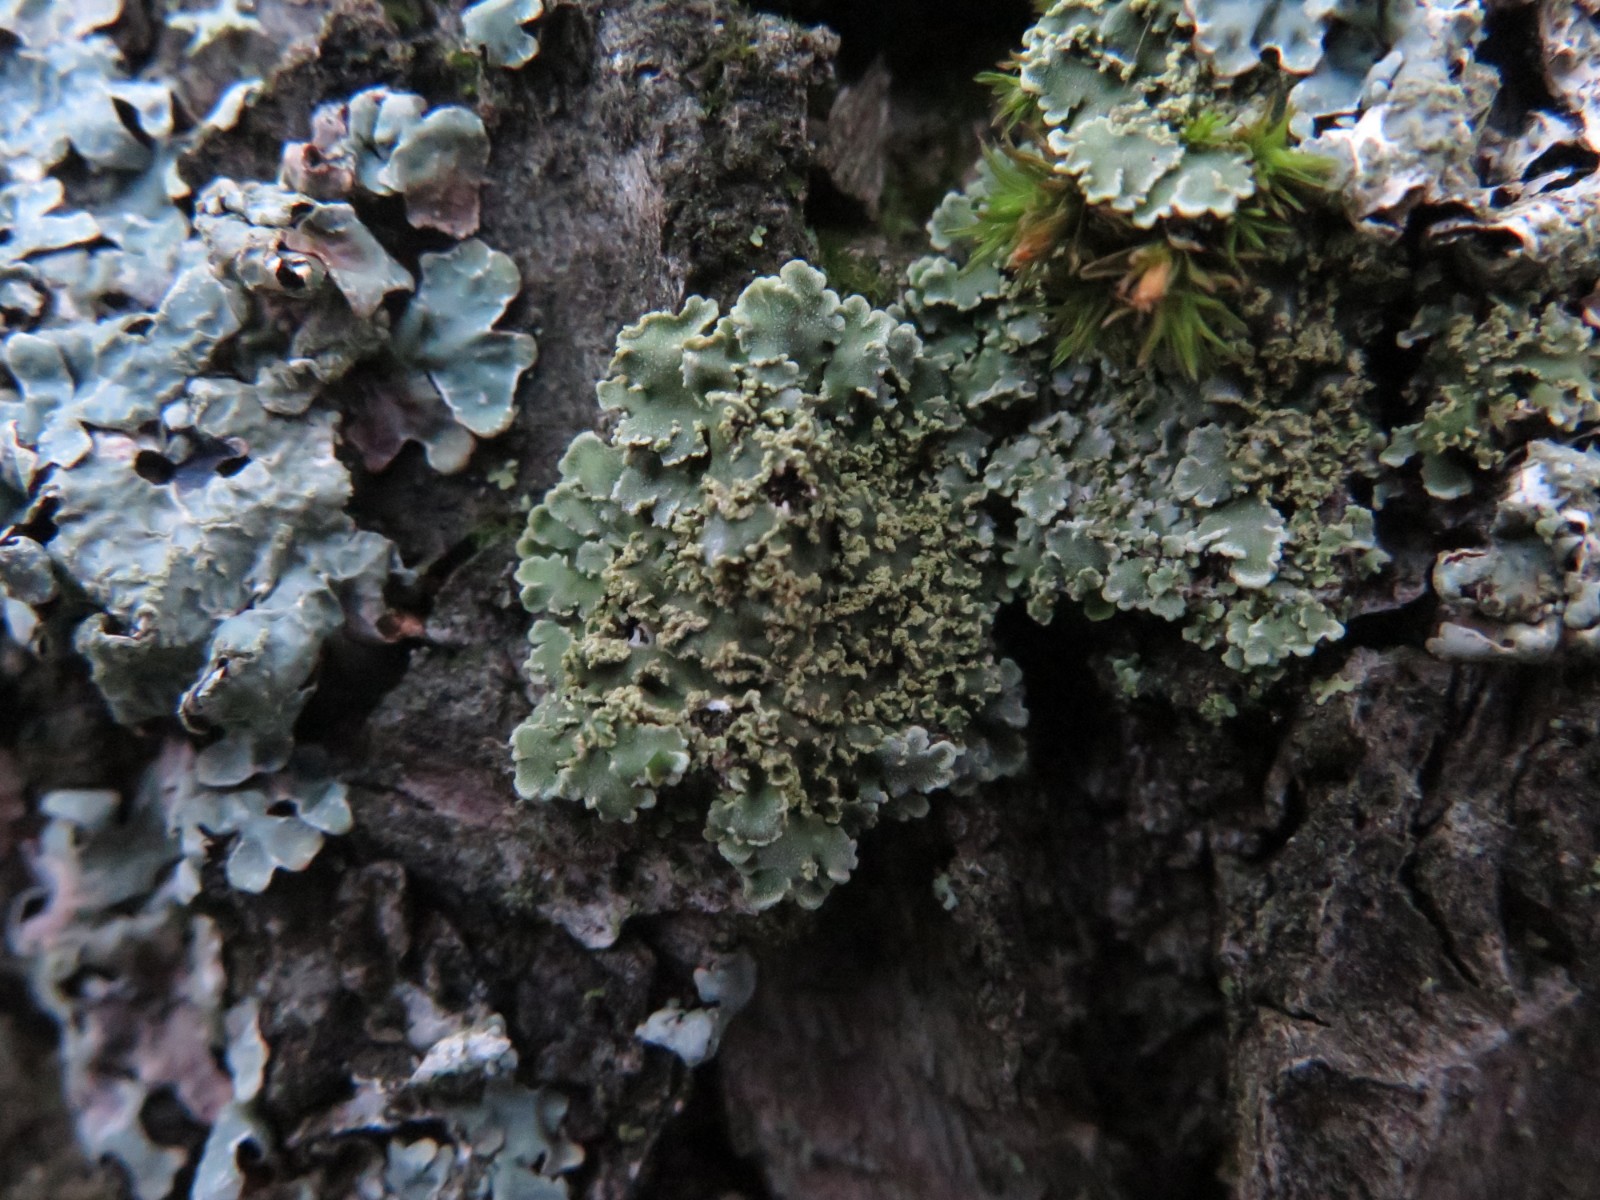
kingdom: Fungi
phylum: Ascomycota
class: Lecanoromycetes
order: Caliciales
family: Physciaceae
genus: Physconia
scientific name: Physconia perisidiosa
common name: liden dugrosetlav
